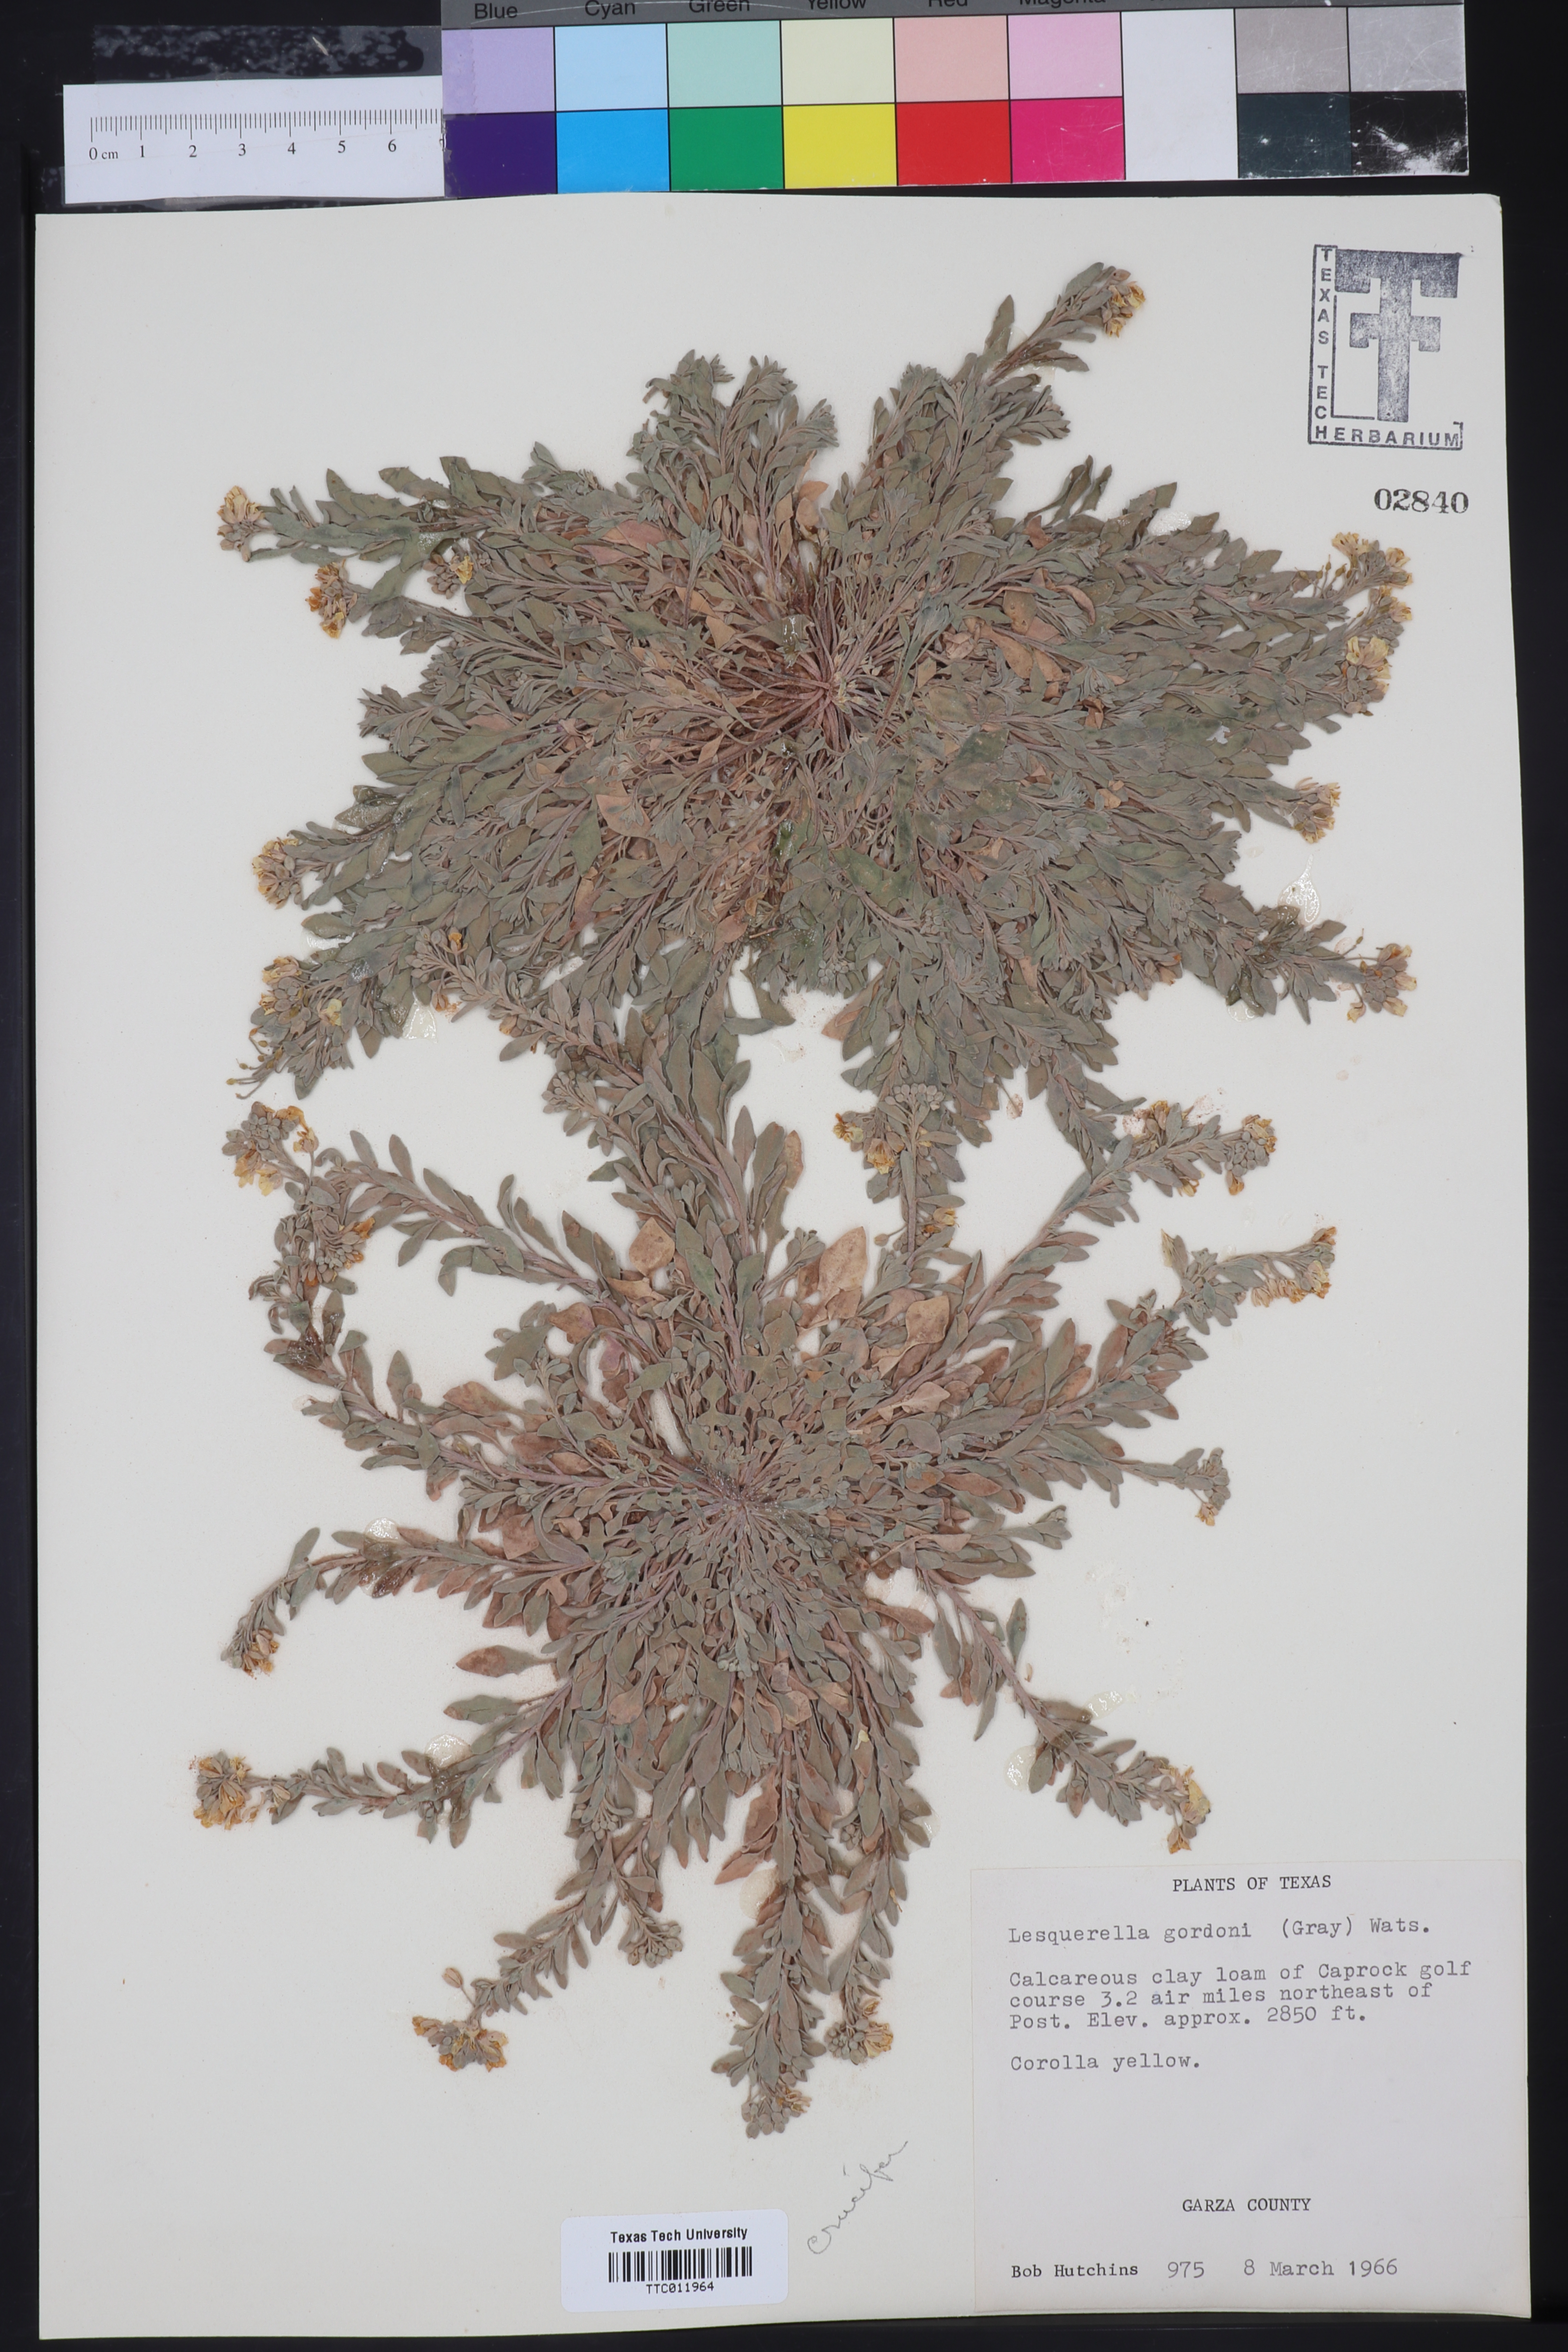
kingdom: Plantae
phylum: Tracheophyta
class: Magnoliopsida
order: Brassicales
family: Brassicaceae
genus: Physaria
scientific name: Physaria gordonii
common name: Gordon's bladderpod
